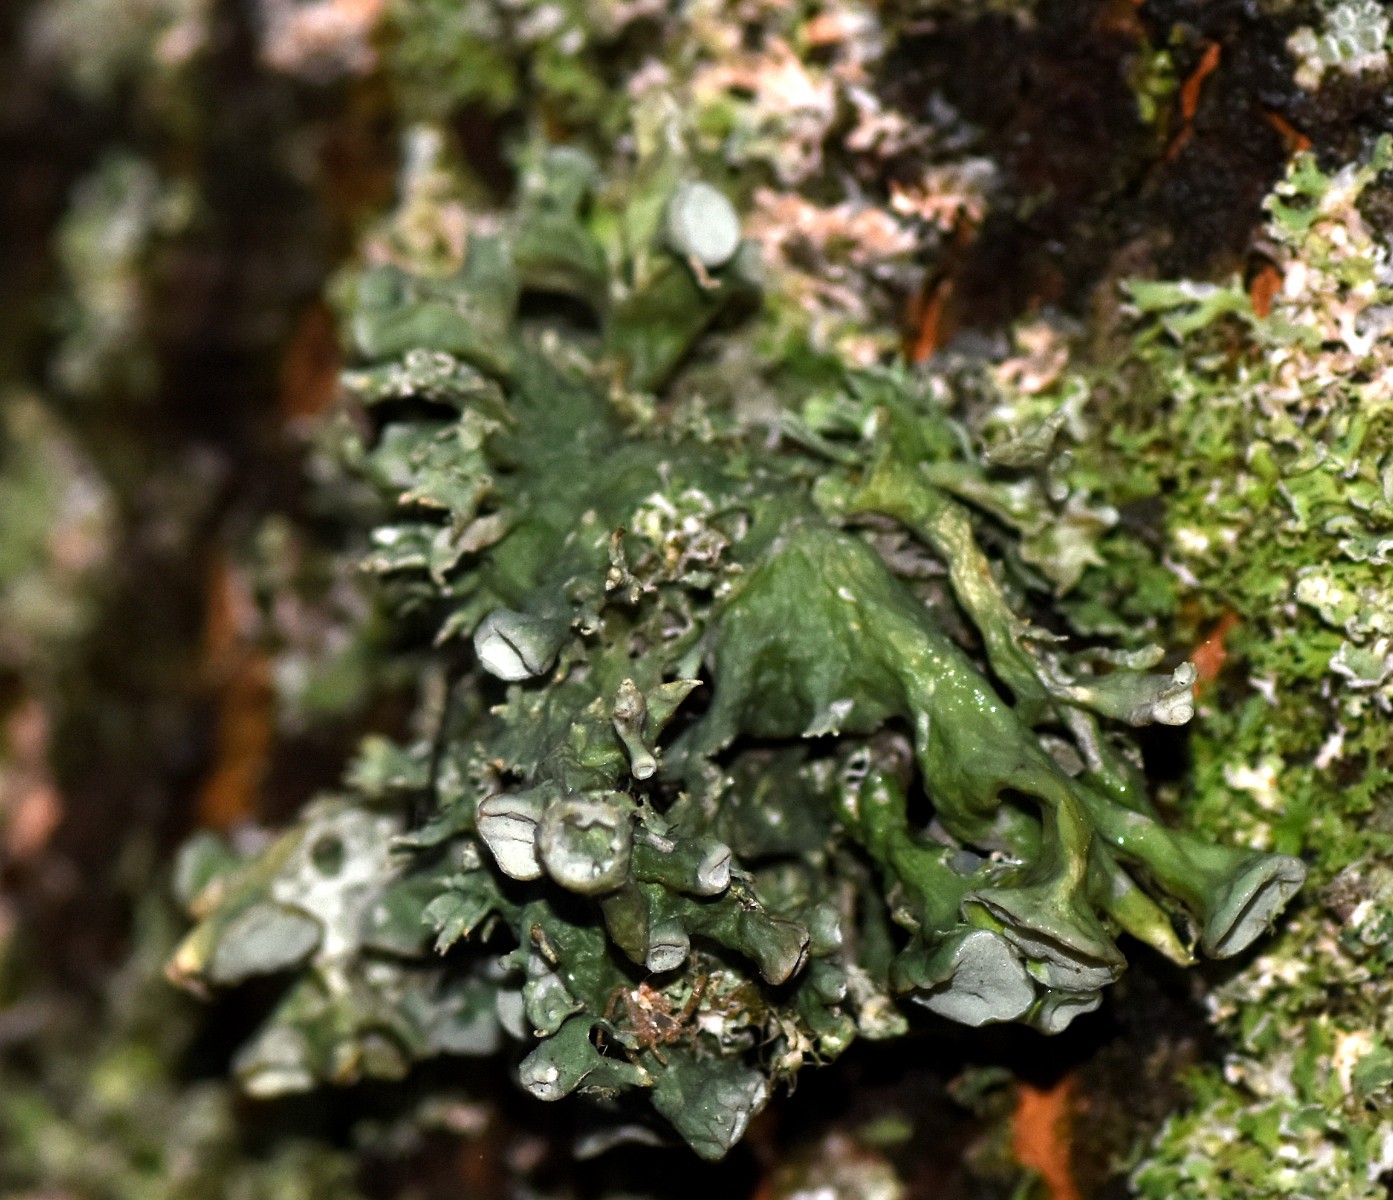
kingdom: Fungi
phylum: Ascomycota
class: Lecanoromycetes
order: Lecanorales
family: Ramalinaceae
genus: Ramalina
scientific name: Ramalina fastigiata
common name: tue-grenlav
